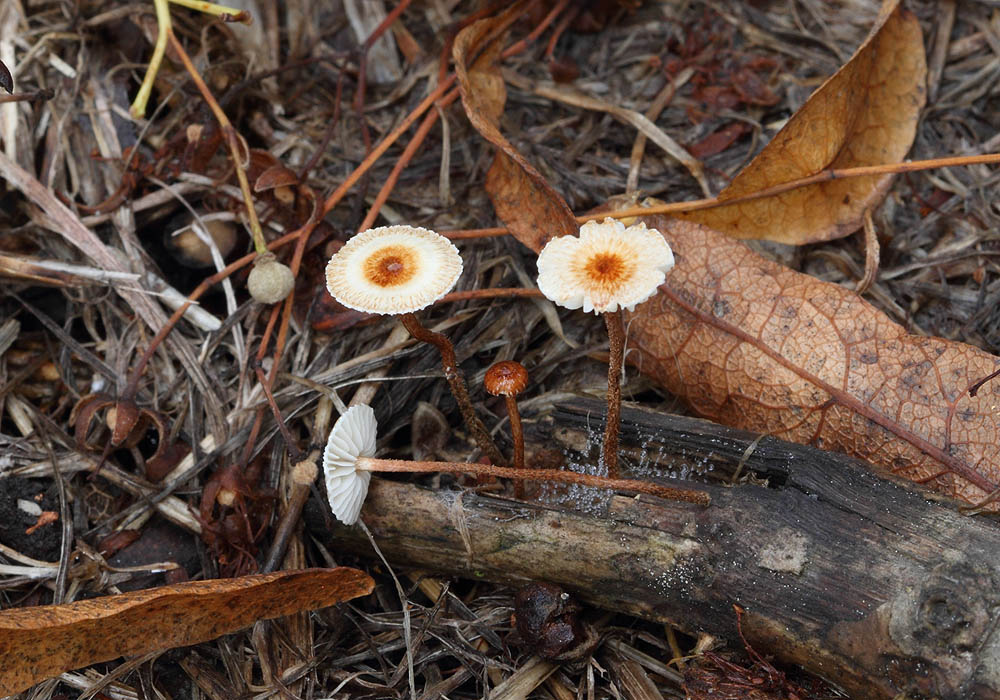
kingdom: Fungi
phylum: Basidiomycota
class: Agaricomycetes
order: Agaricales
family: Marasmiaceae
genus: Crinipellis
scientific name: Crinipellis scabella
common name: børstefod
